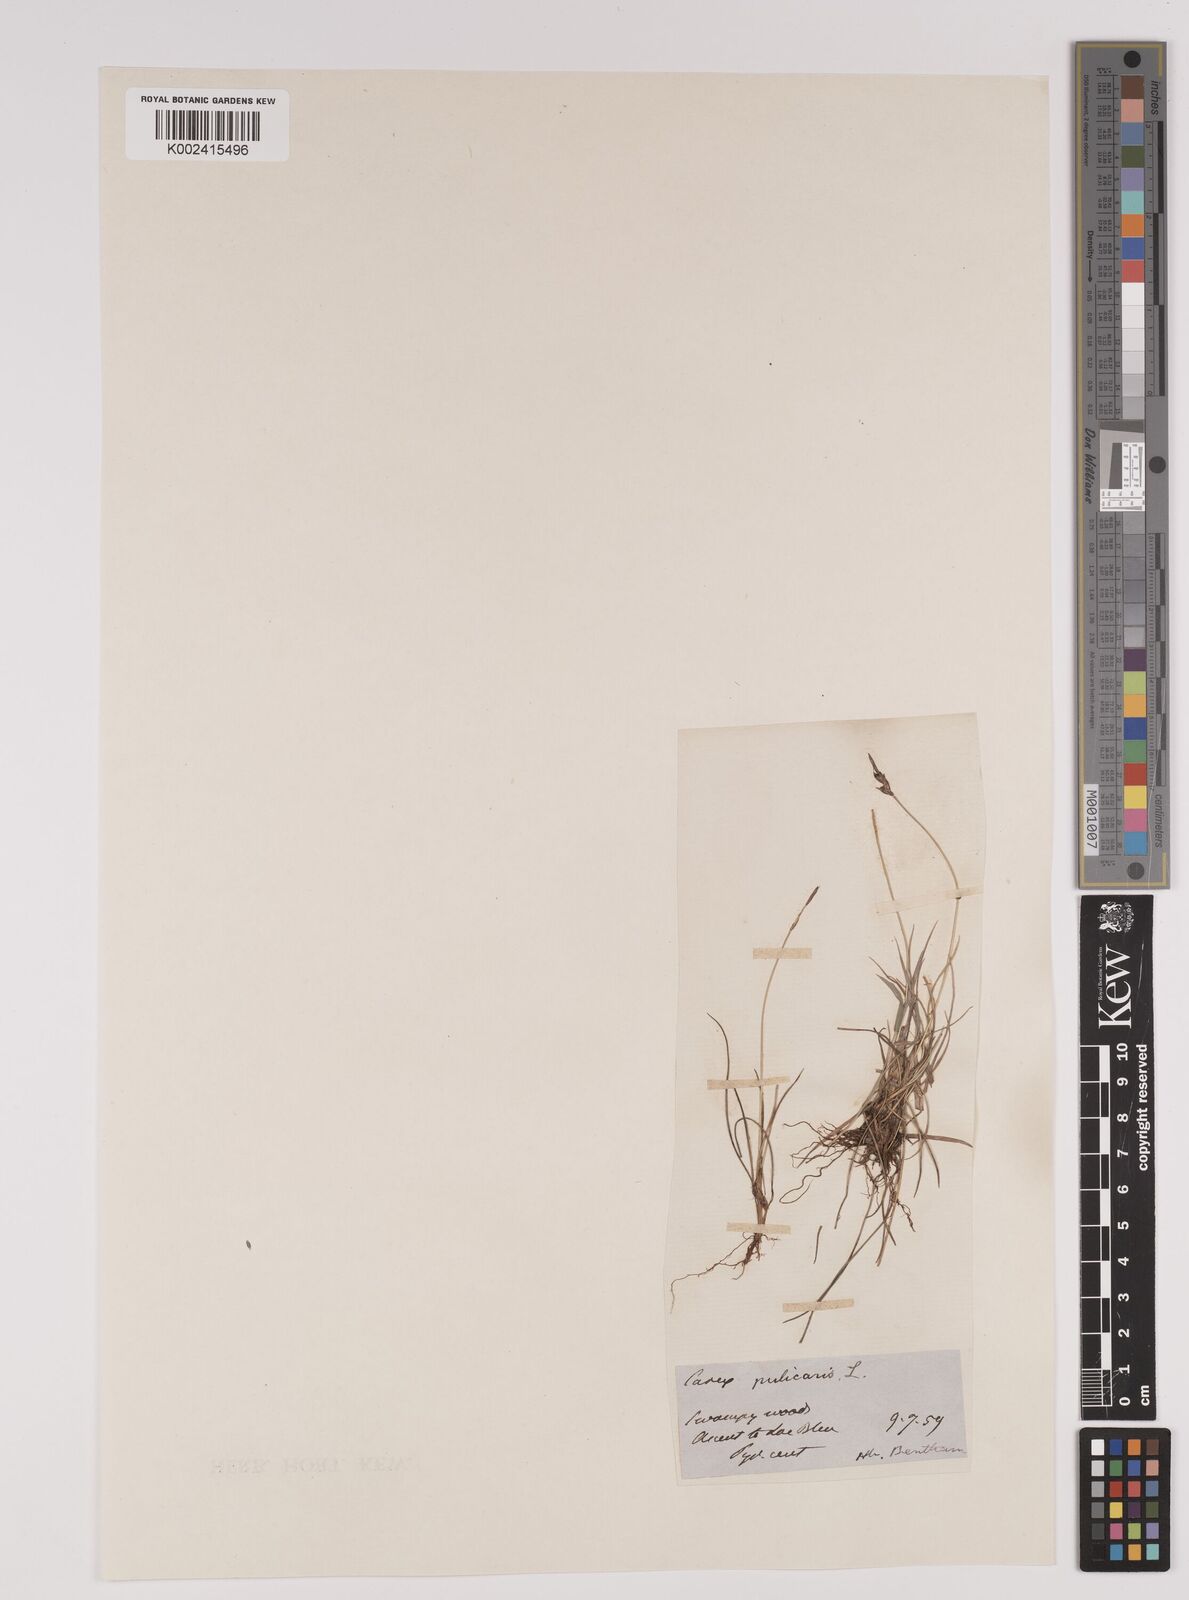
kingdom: Plantae
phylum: Tracheophyta
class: Liliopsida
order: Poales
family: Cyperaceae
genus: Carex
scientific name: Carex pulicaris
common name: Flea sedge
